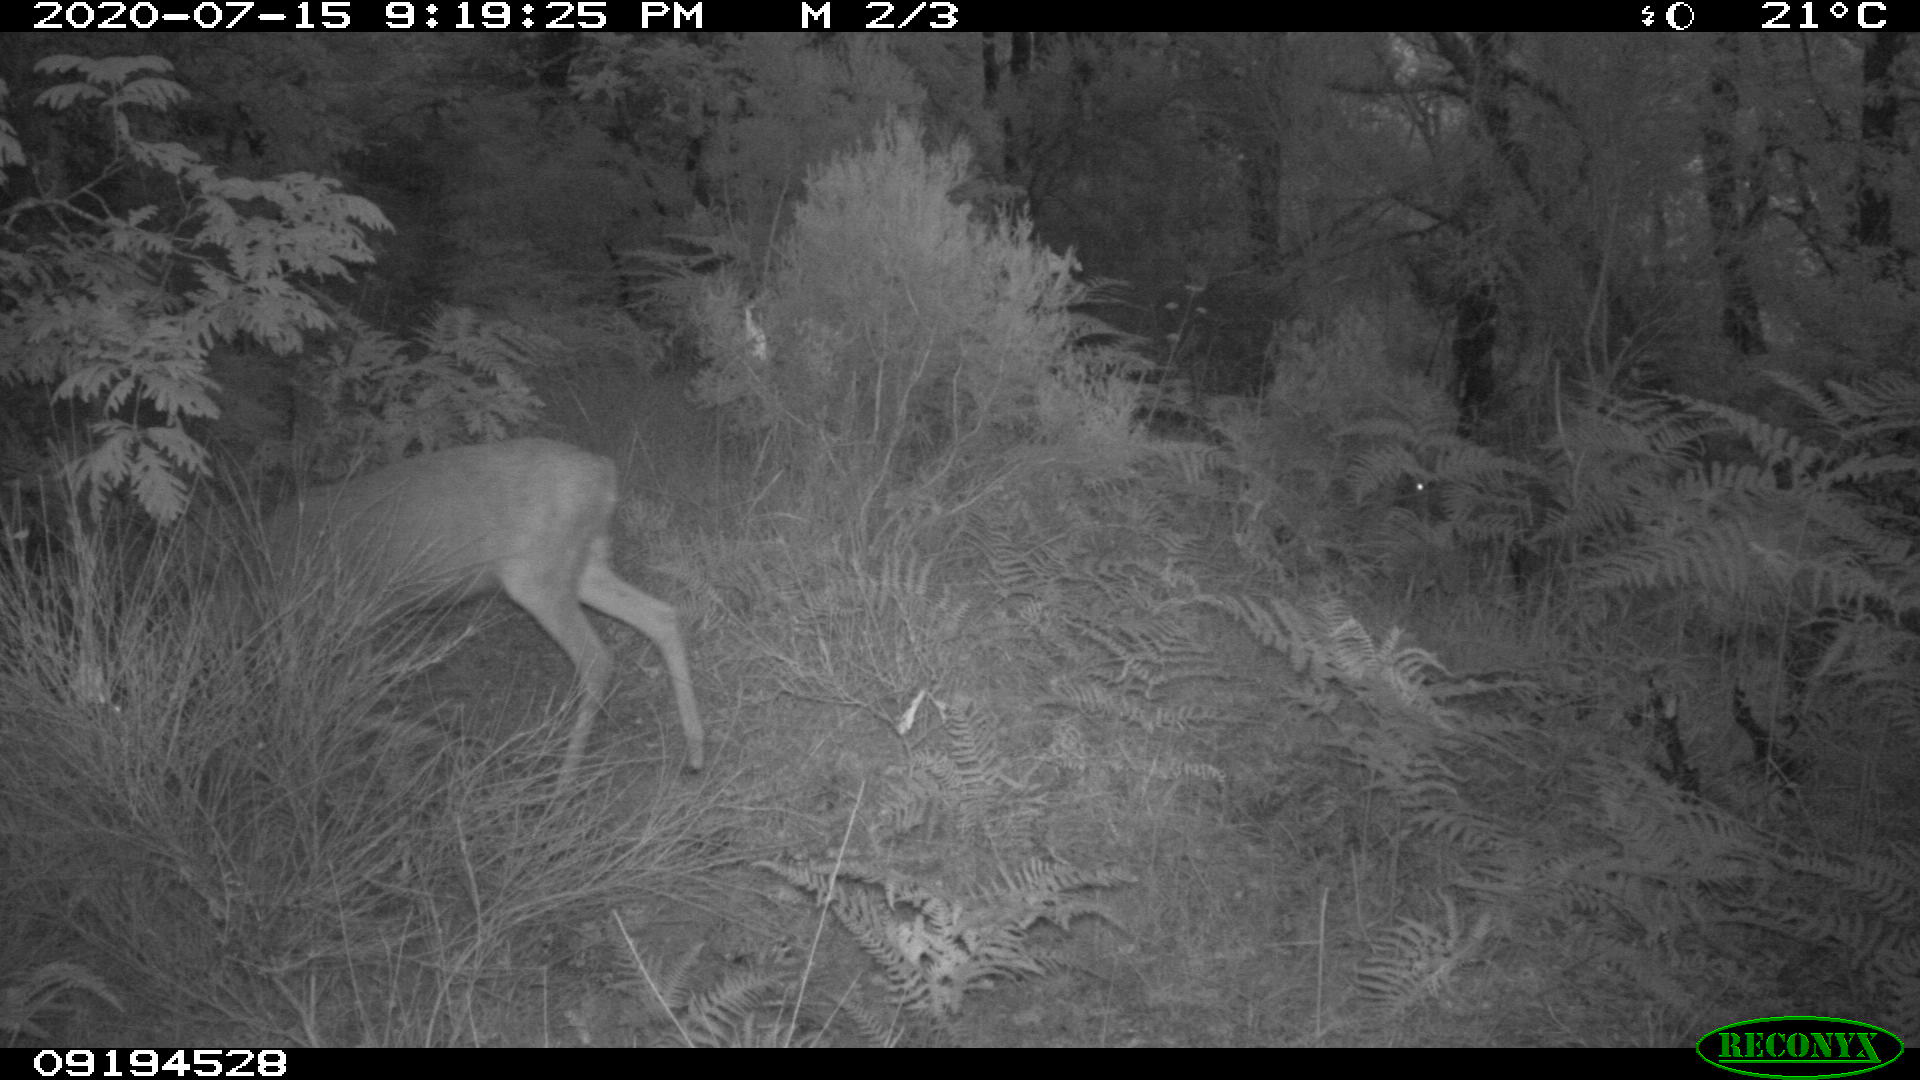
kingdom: Animalia
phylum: Chordata
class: Mammalia
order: Artiodactyla
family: Cervidae
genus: Capreolus
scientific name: Capreolus capreolus
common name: Western roe deer
